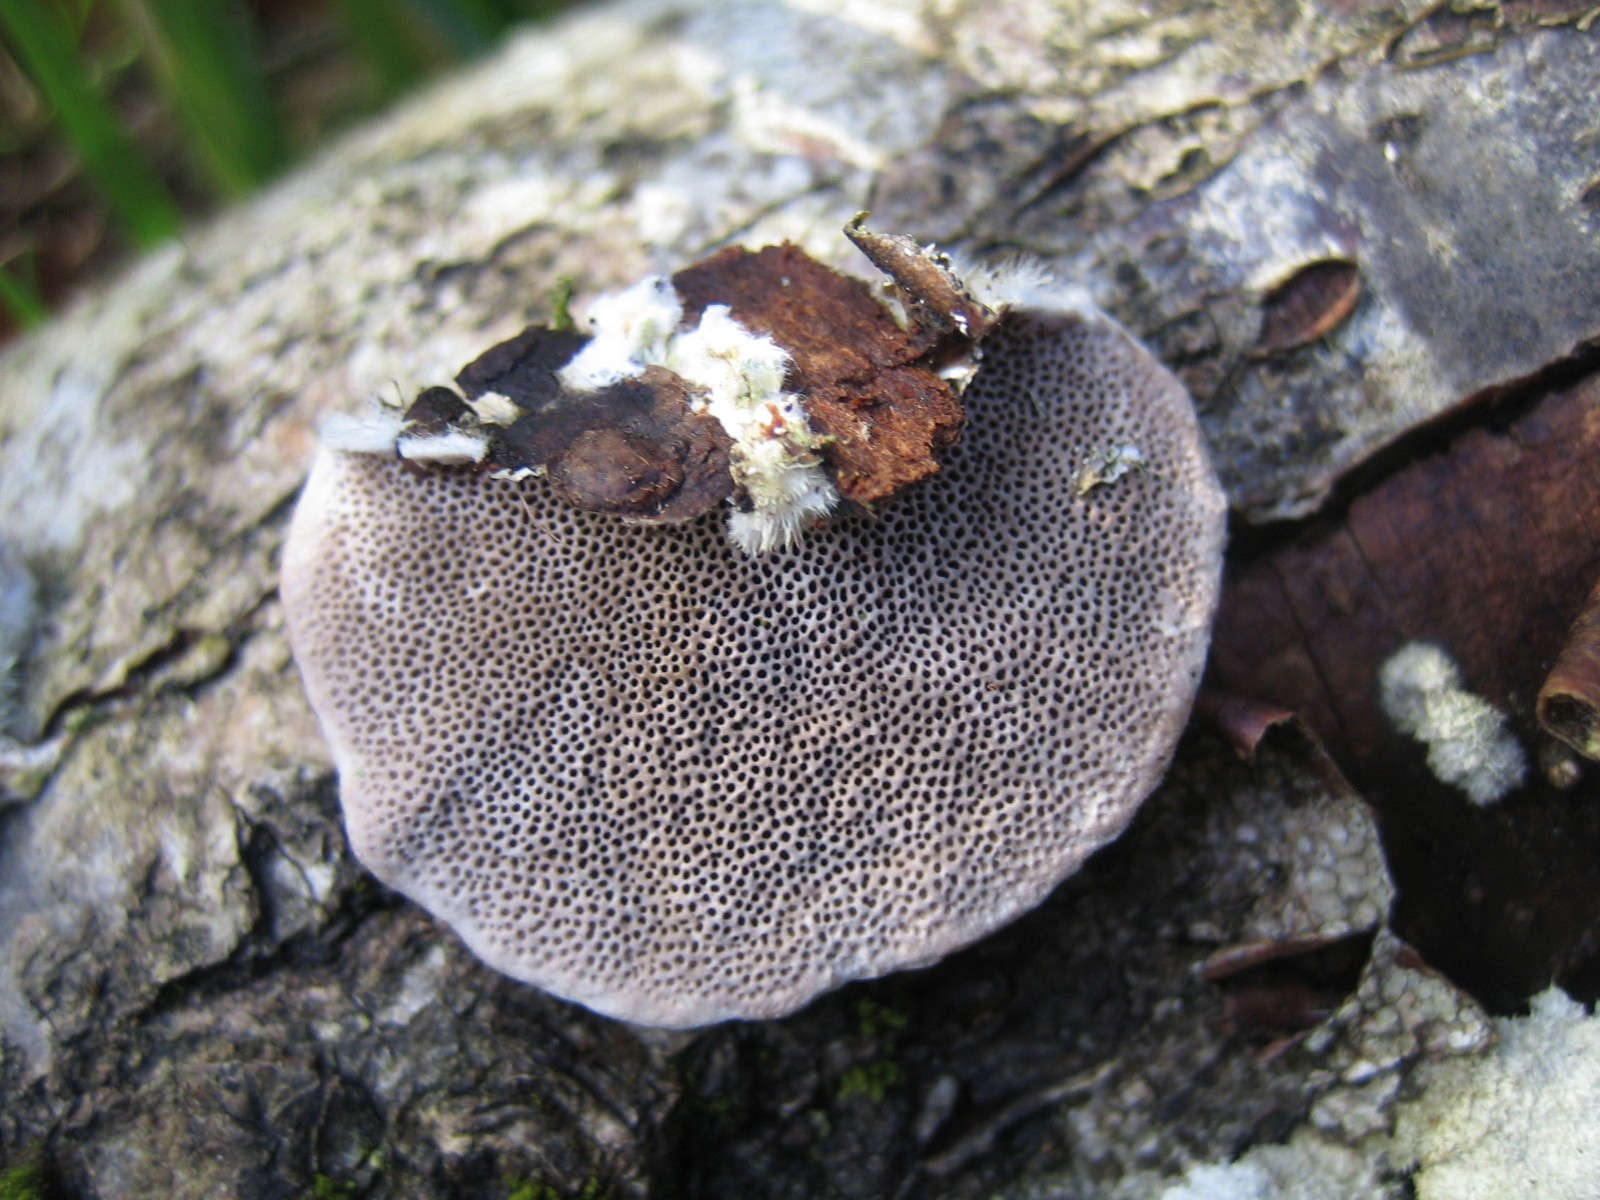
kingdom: Fungi
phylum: Basidiomycota
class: Agaricomycetes
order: Polyporales
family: Polyporaceae
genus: Trametes
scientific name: Trametes hirsuta
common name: håret læderporesvamp
